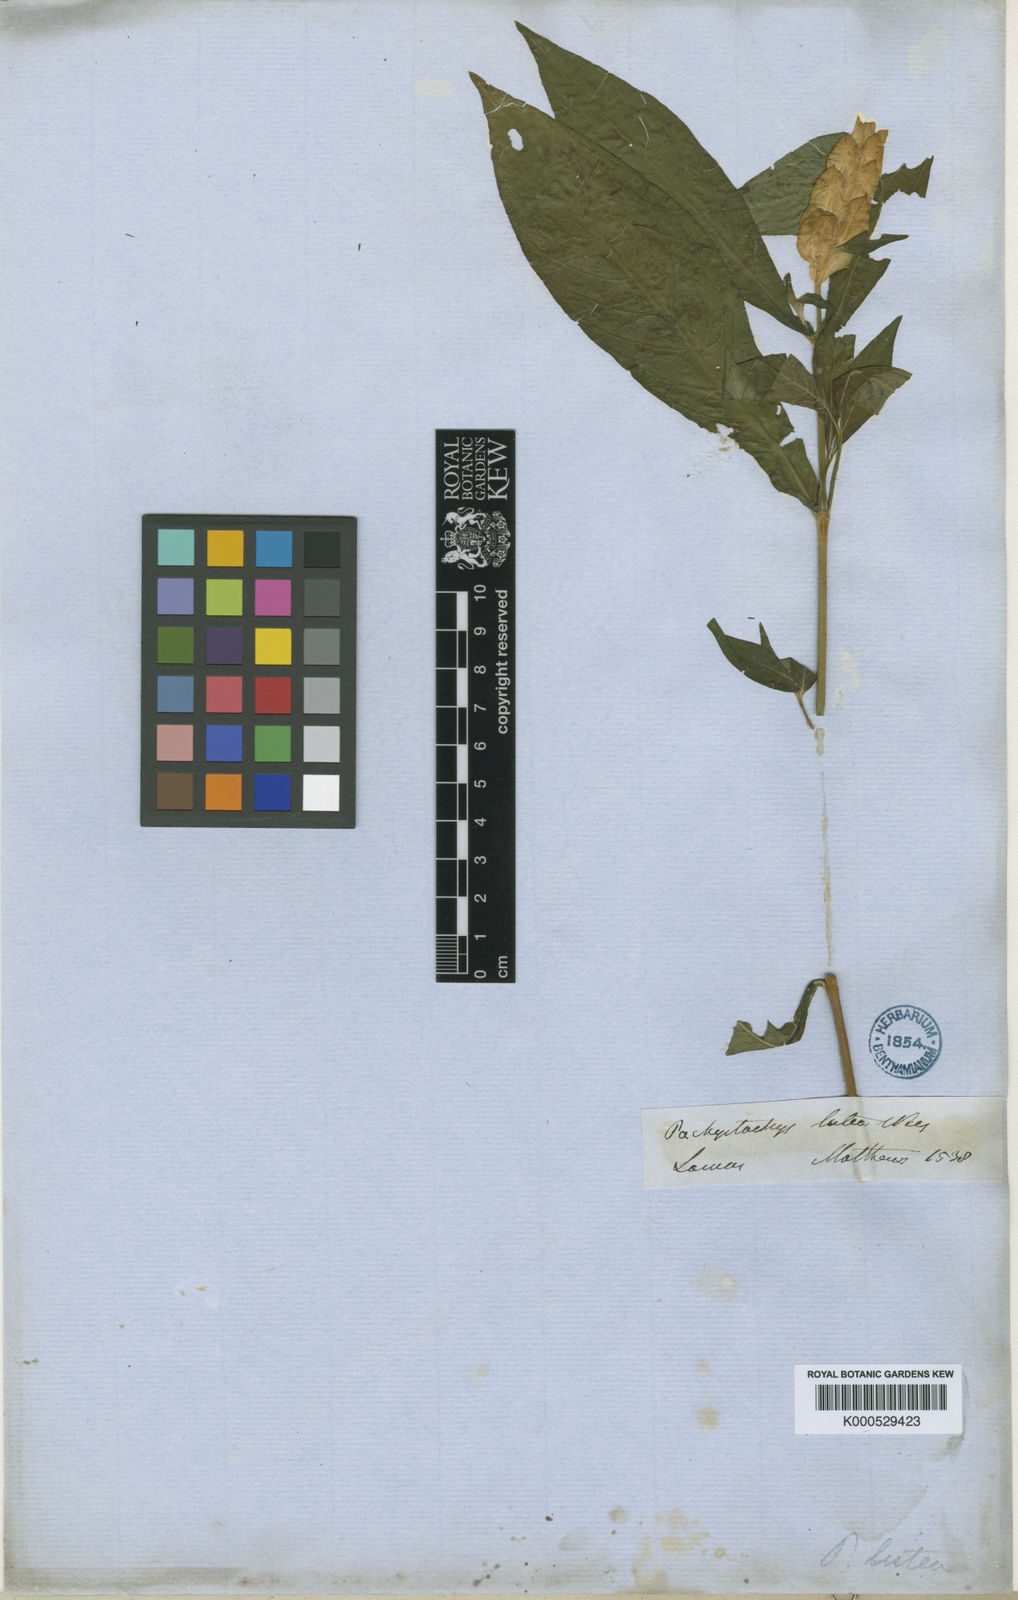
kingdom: Plantae
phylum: Tracheophyta
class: Magnoliopsida
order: Lamiales
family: Acanthaceae
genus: Pachystachys
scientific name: Pachystachys lutea
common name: Golden shrimp-plant
